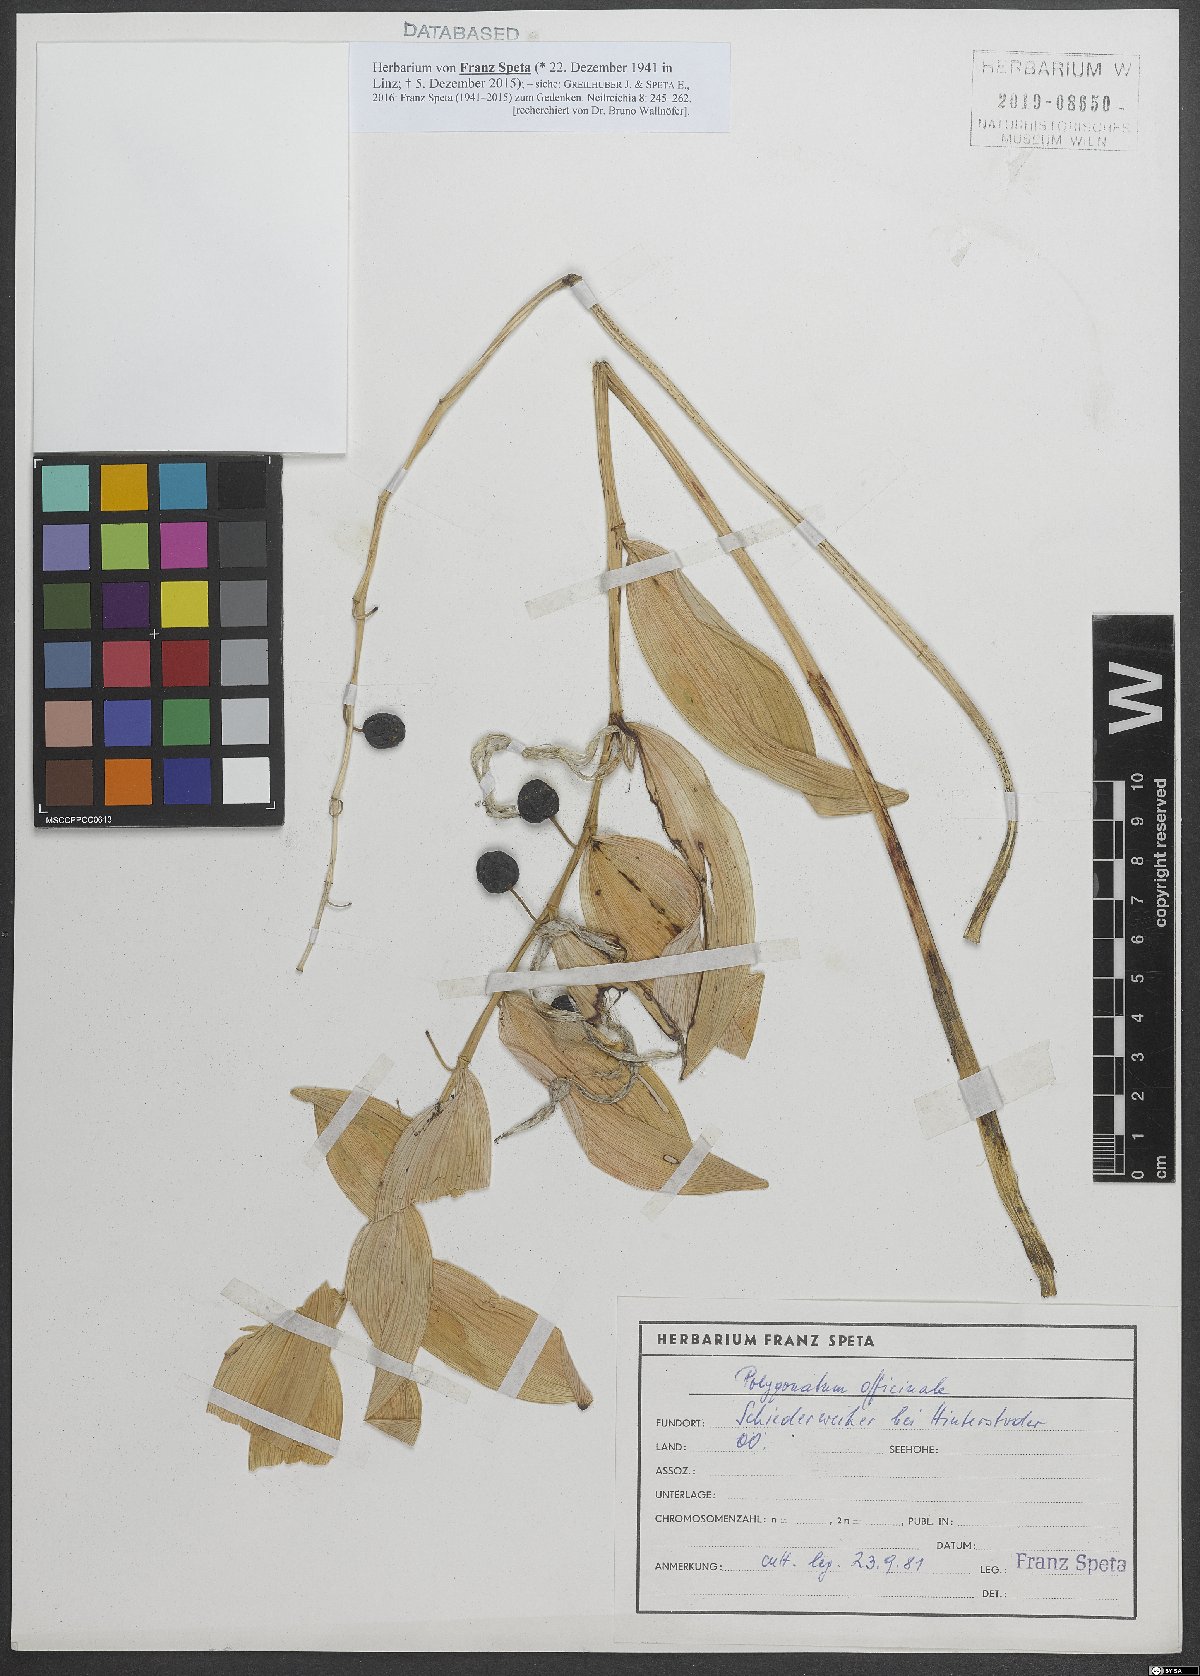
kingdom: Plantae
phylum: Tracheophyta
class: Liliopsida
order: Asparagales
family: Asparagaceae
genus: Polygonatum
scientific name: Polygonatum odoratum
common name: Angular solomon's-seal
